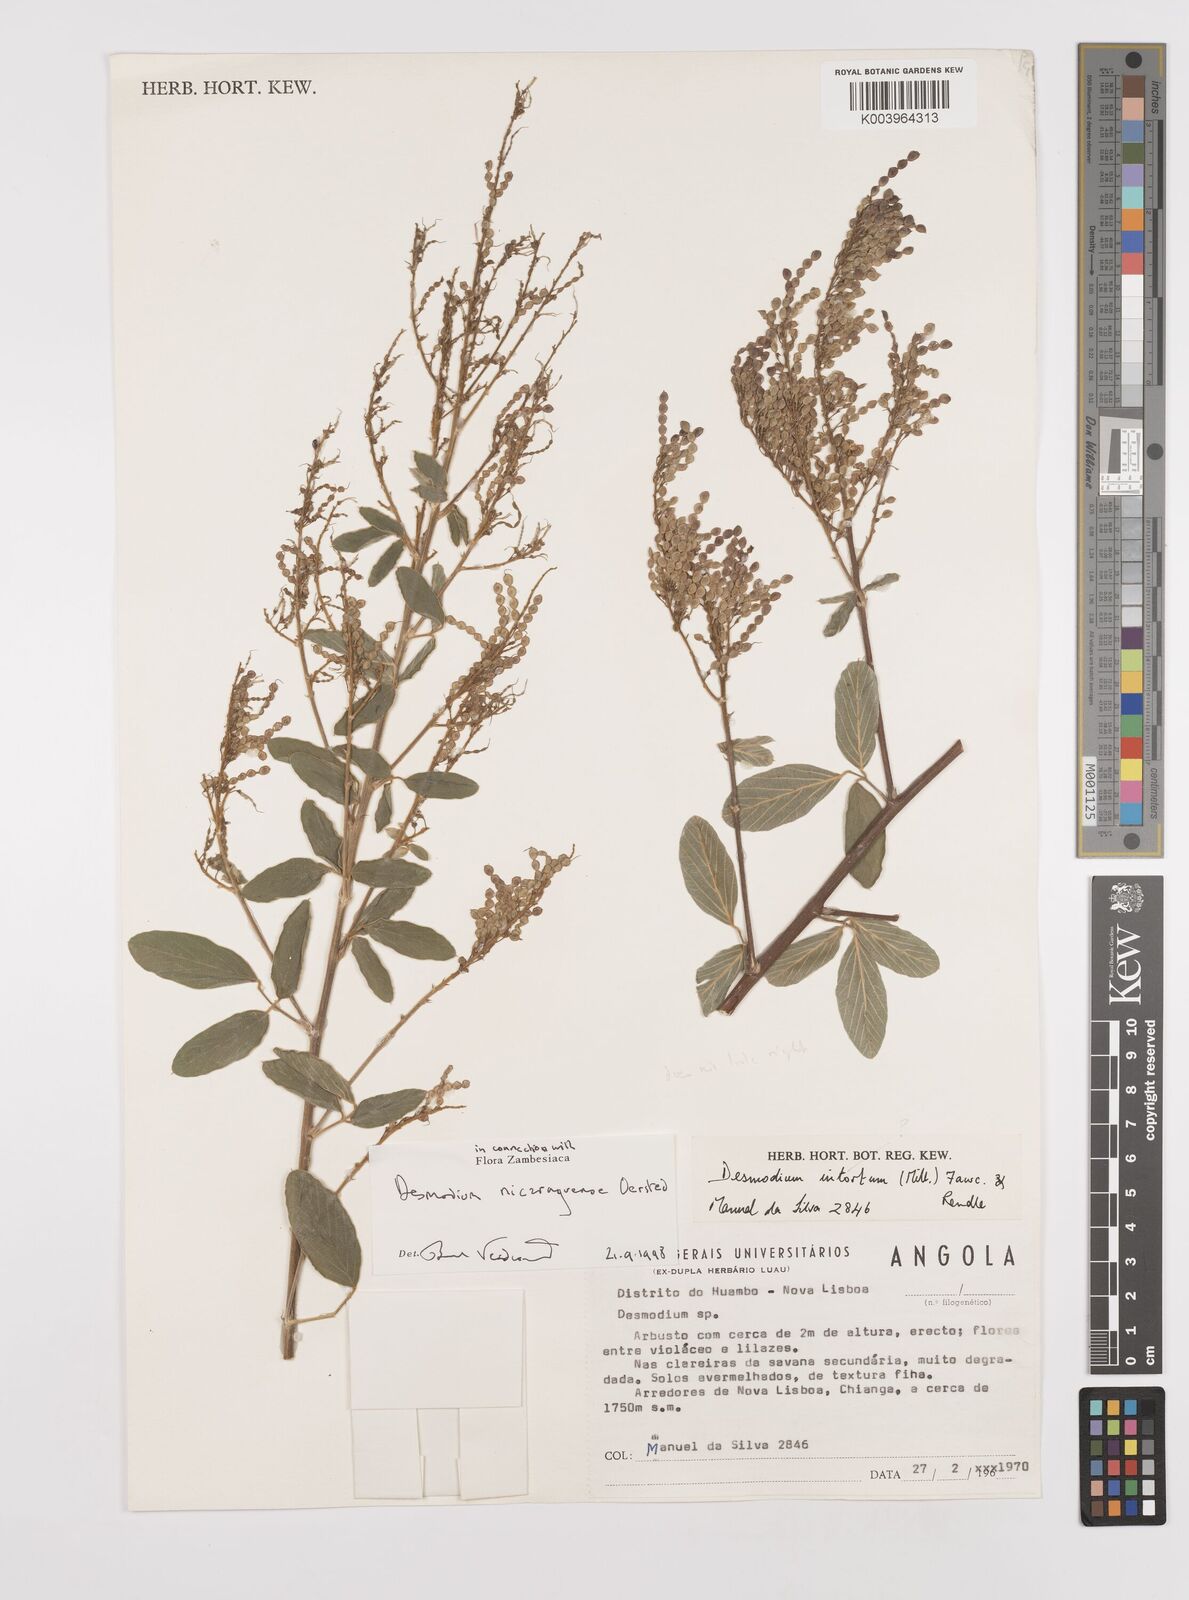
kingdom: Plantae
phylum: Tracheophyta
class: Magnoliopsida
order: Fabales
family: Fabaceae
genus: Desmodium
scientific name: Desmodium nicaraguense
